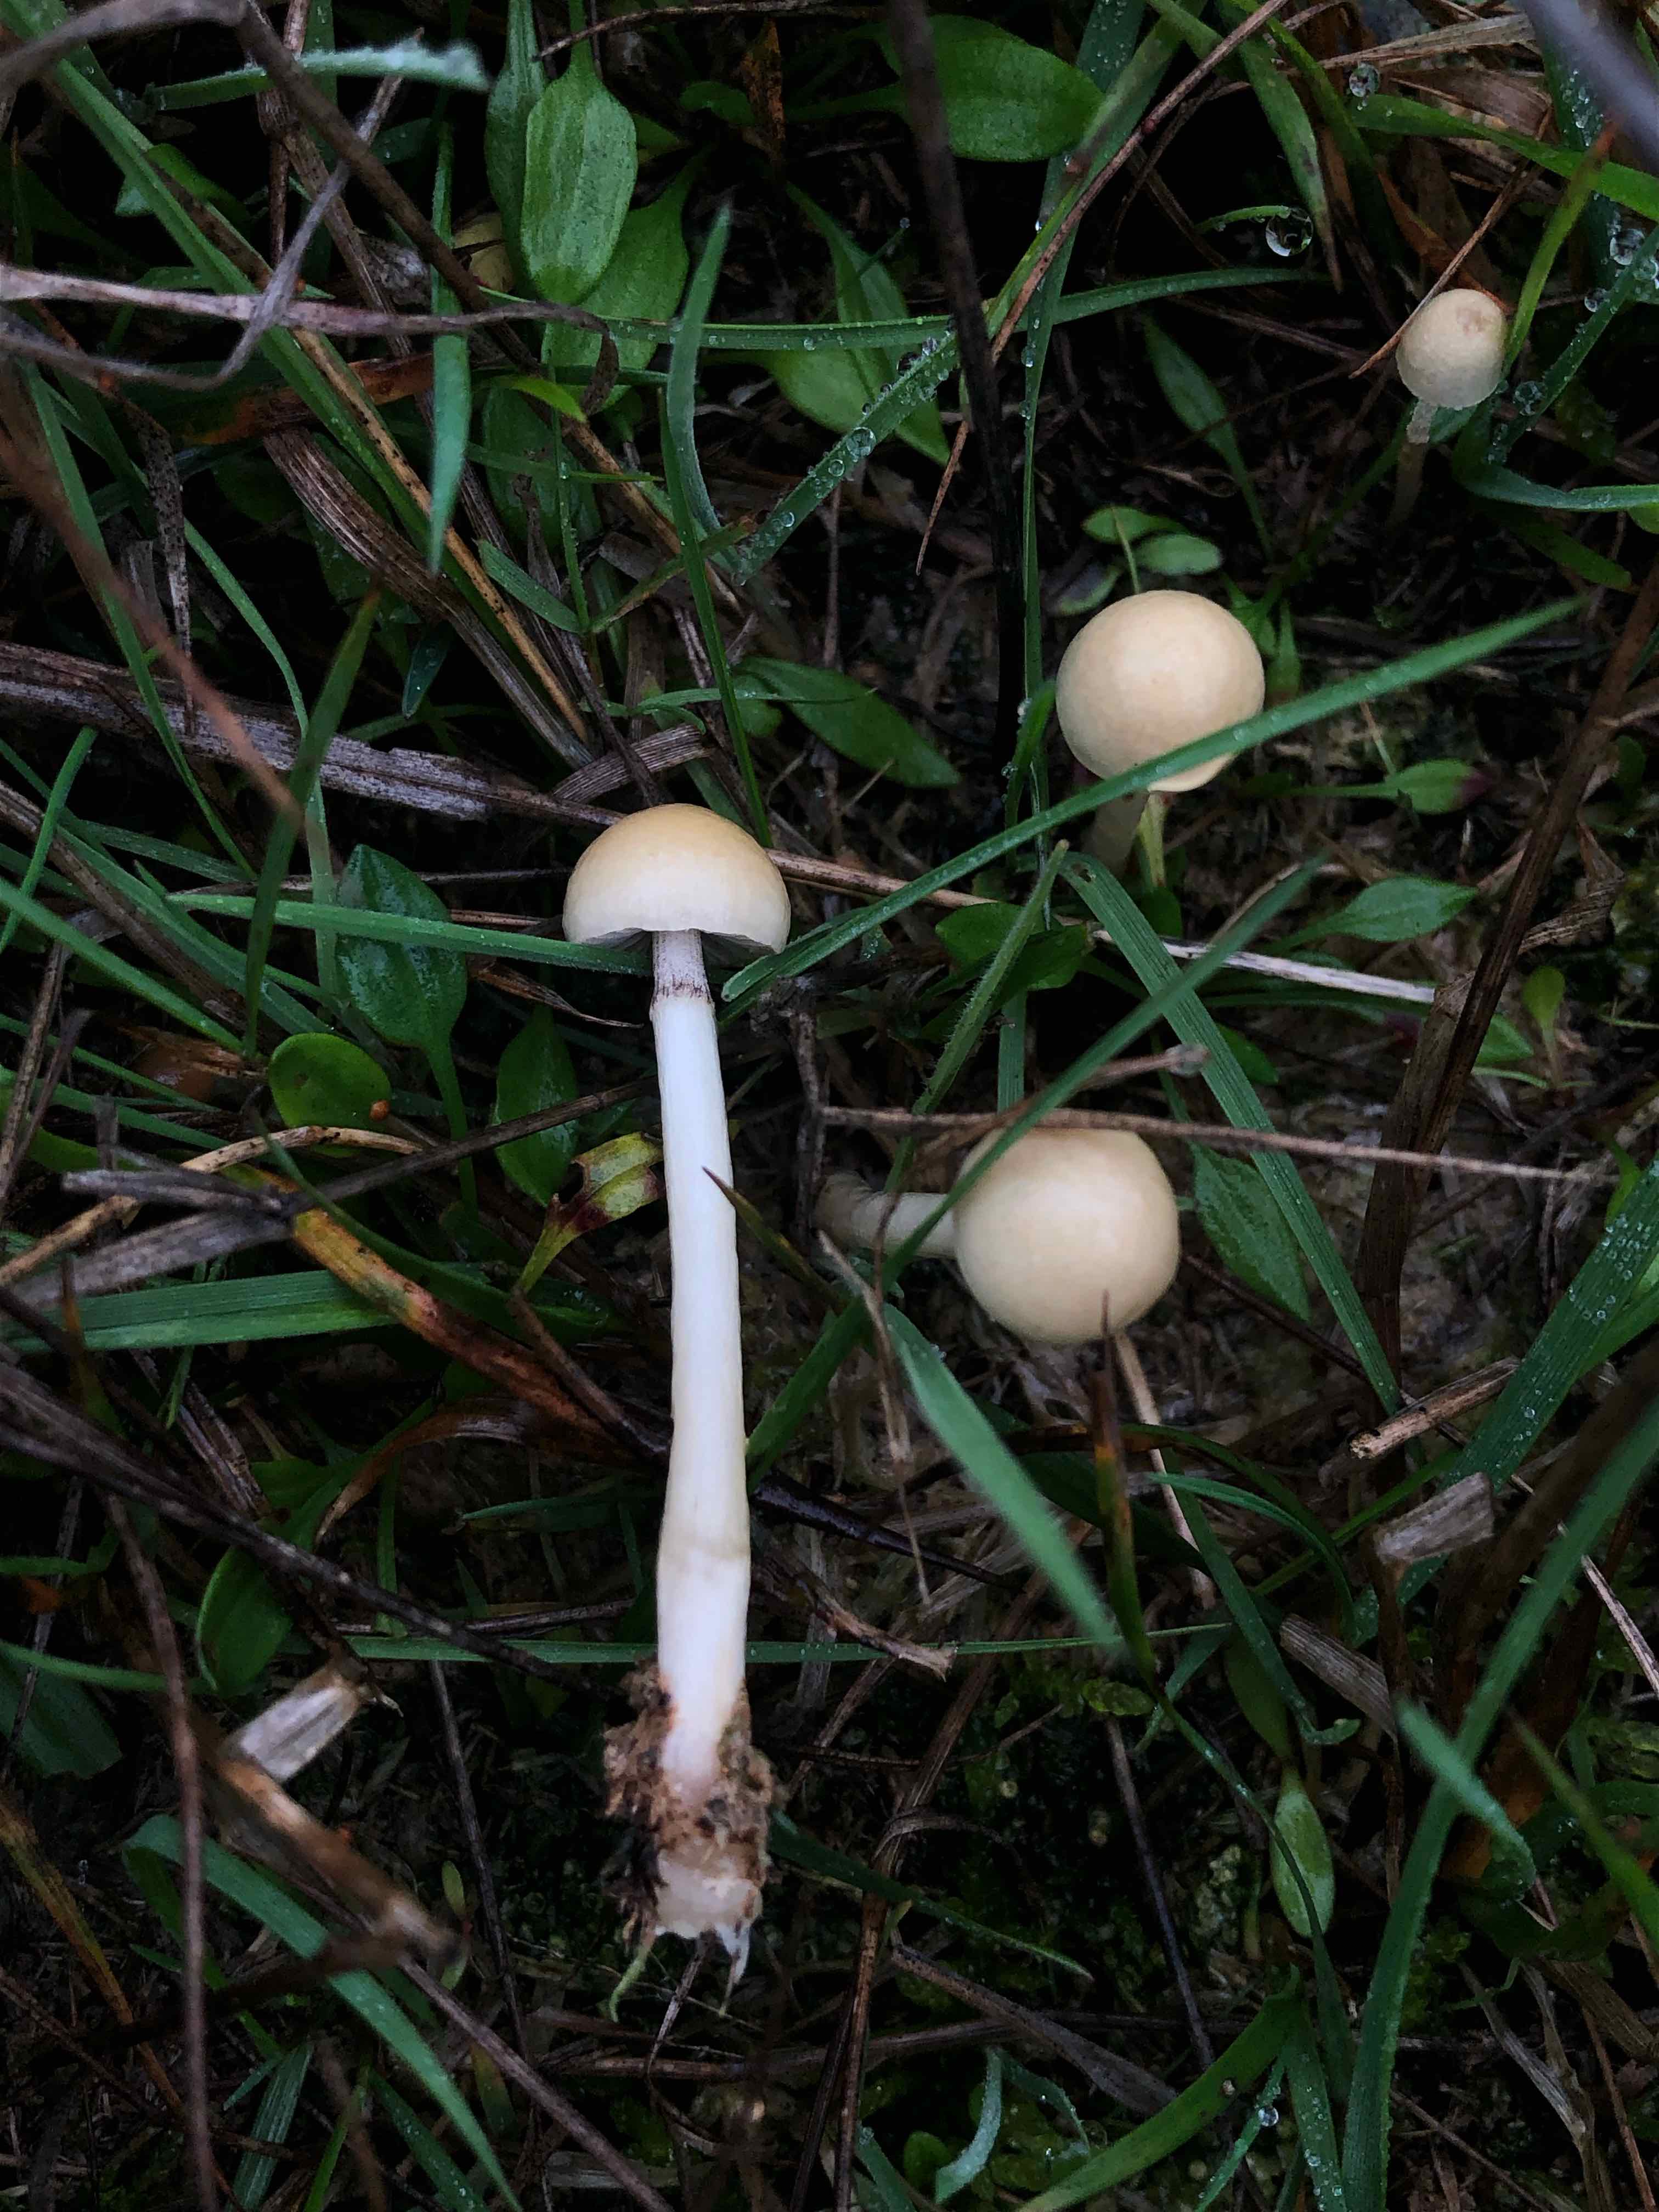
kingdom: Fungi
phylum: Basidiomycota
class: Agaricomycetes
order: Agaricales
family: Strophariaceae
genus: Protostropharia
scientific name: Protostropharia semiglobata
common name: halvkugleformet bredblad
